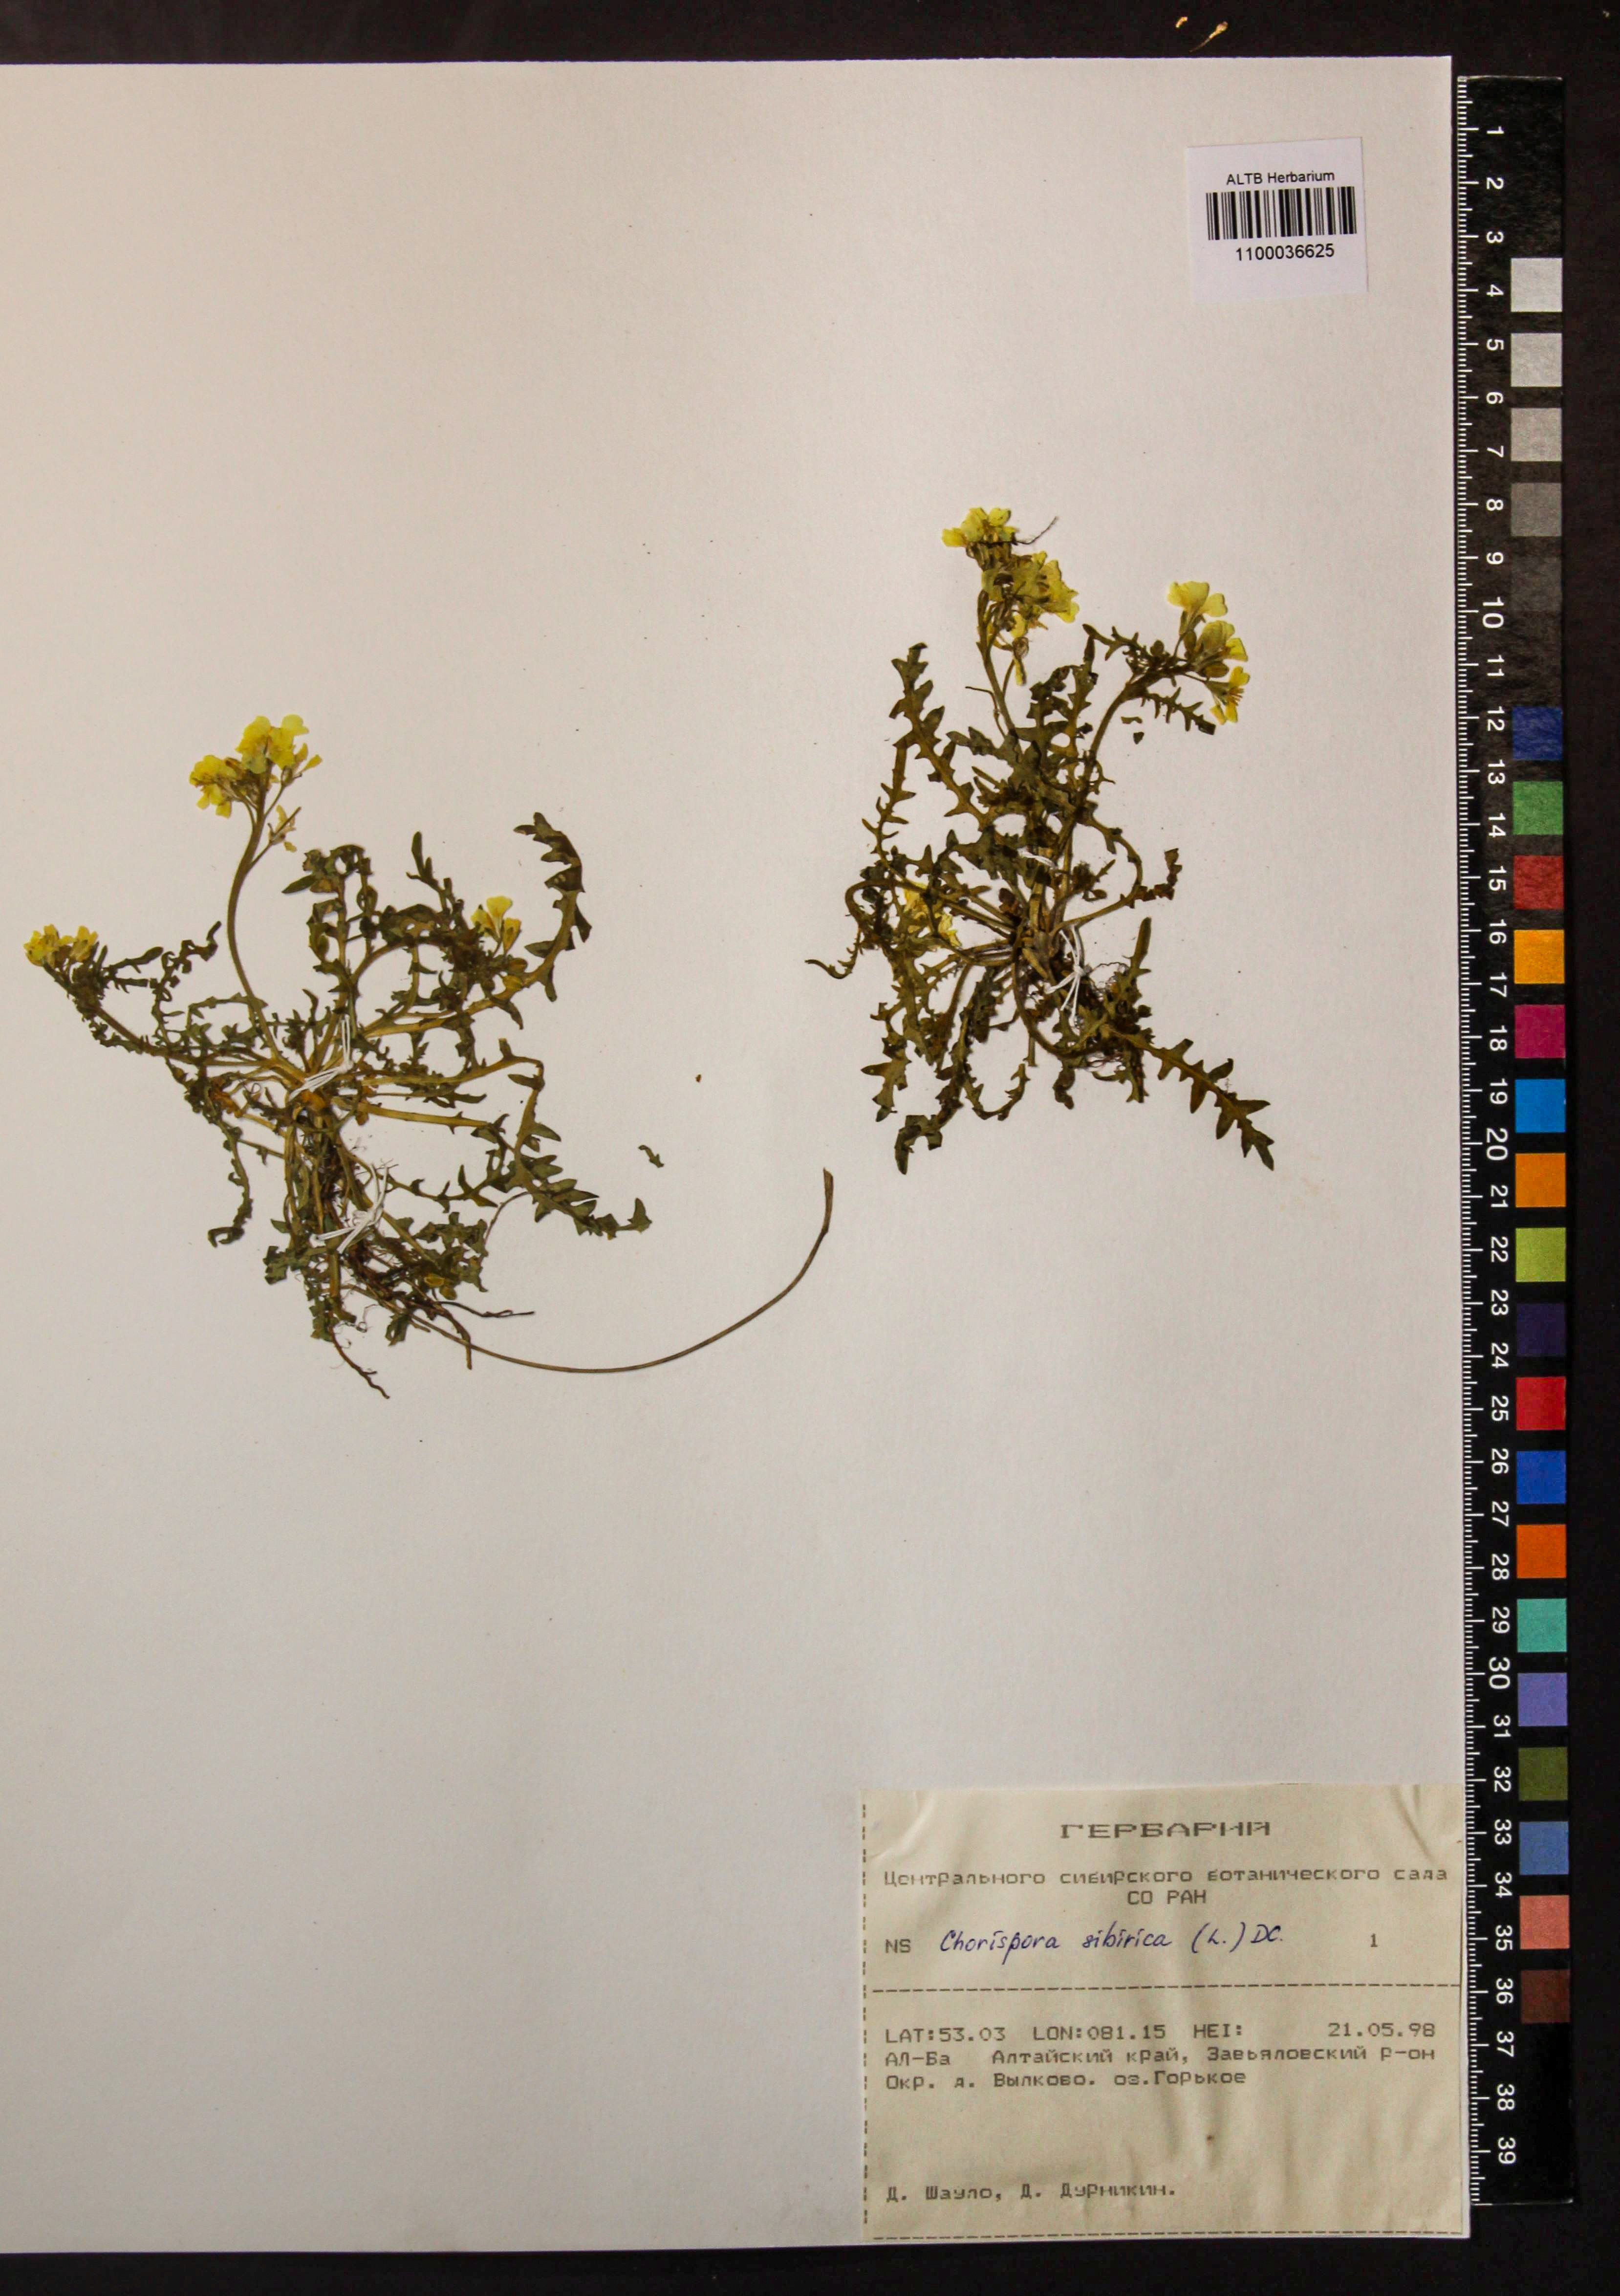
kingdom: Plantae
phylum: Tracheophyta
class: Magnoliopsida
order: Brassicales
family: Brassicaceae
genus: Chorispora
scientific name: Chorispora sibirica
